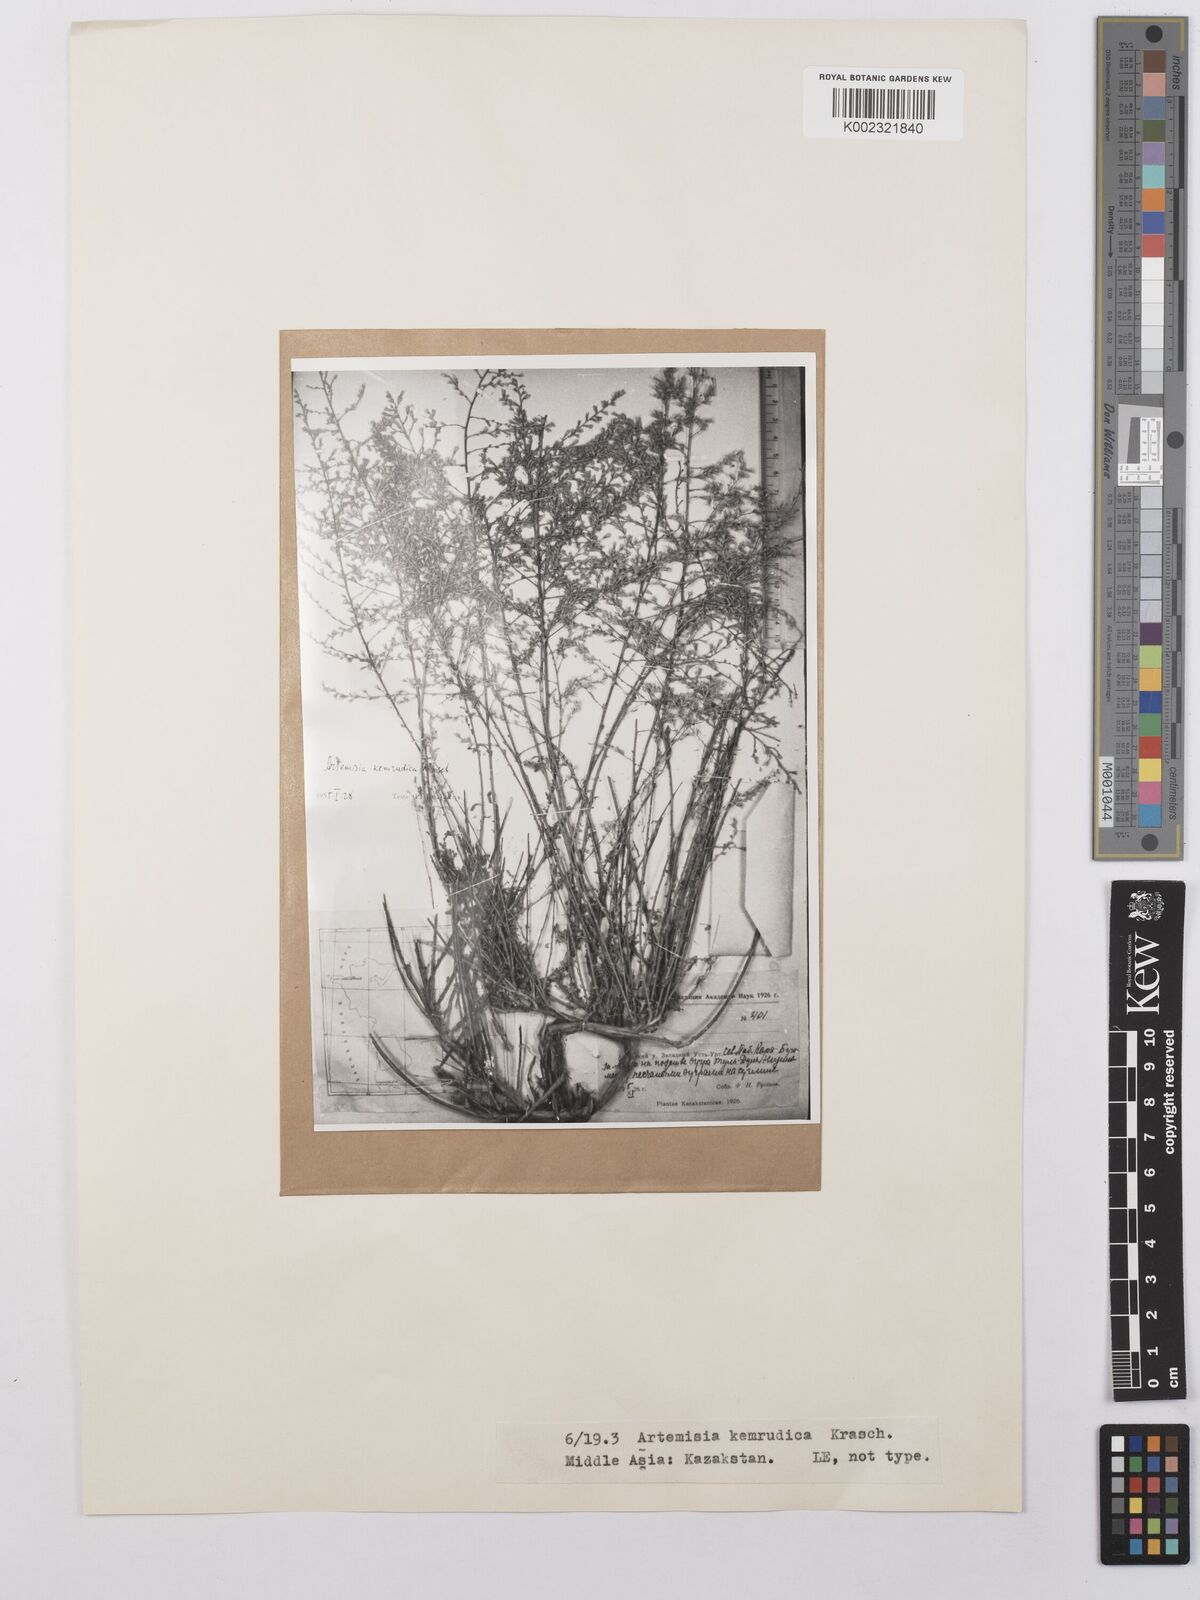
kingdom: Plantae
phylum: Tracheophyta
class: Magnoliopsida
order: Asterales
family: Asteraceae
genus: Artemisia
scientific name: Artemisia kemrudica
